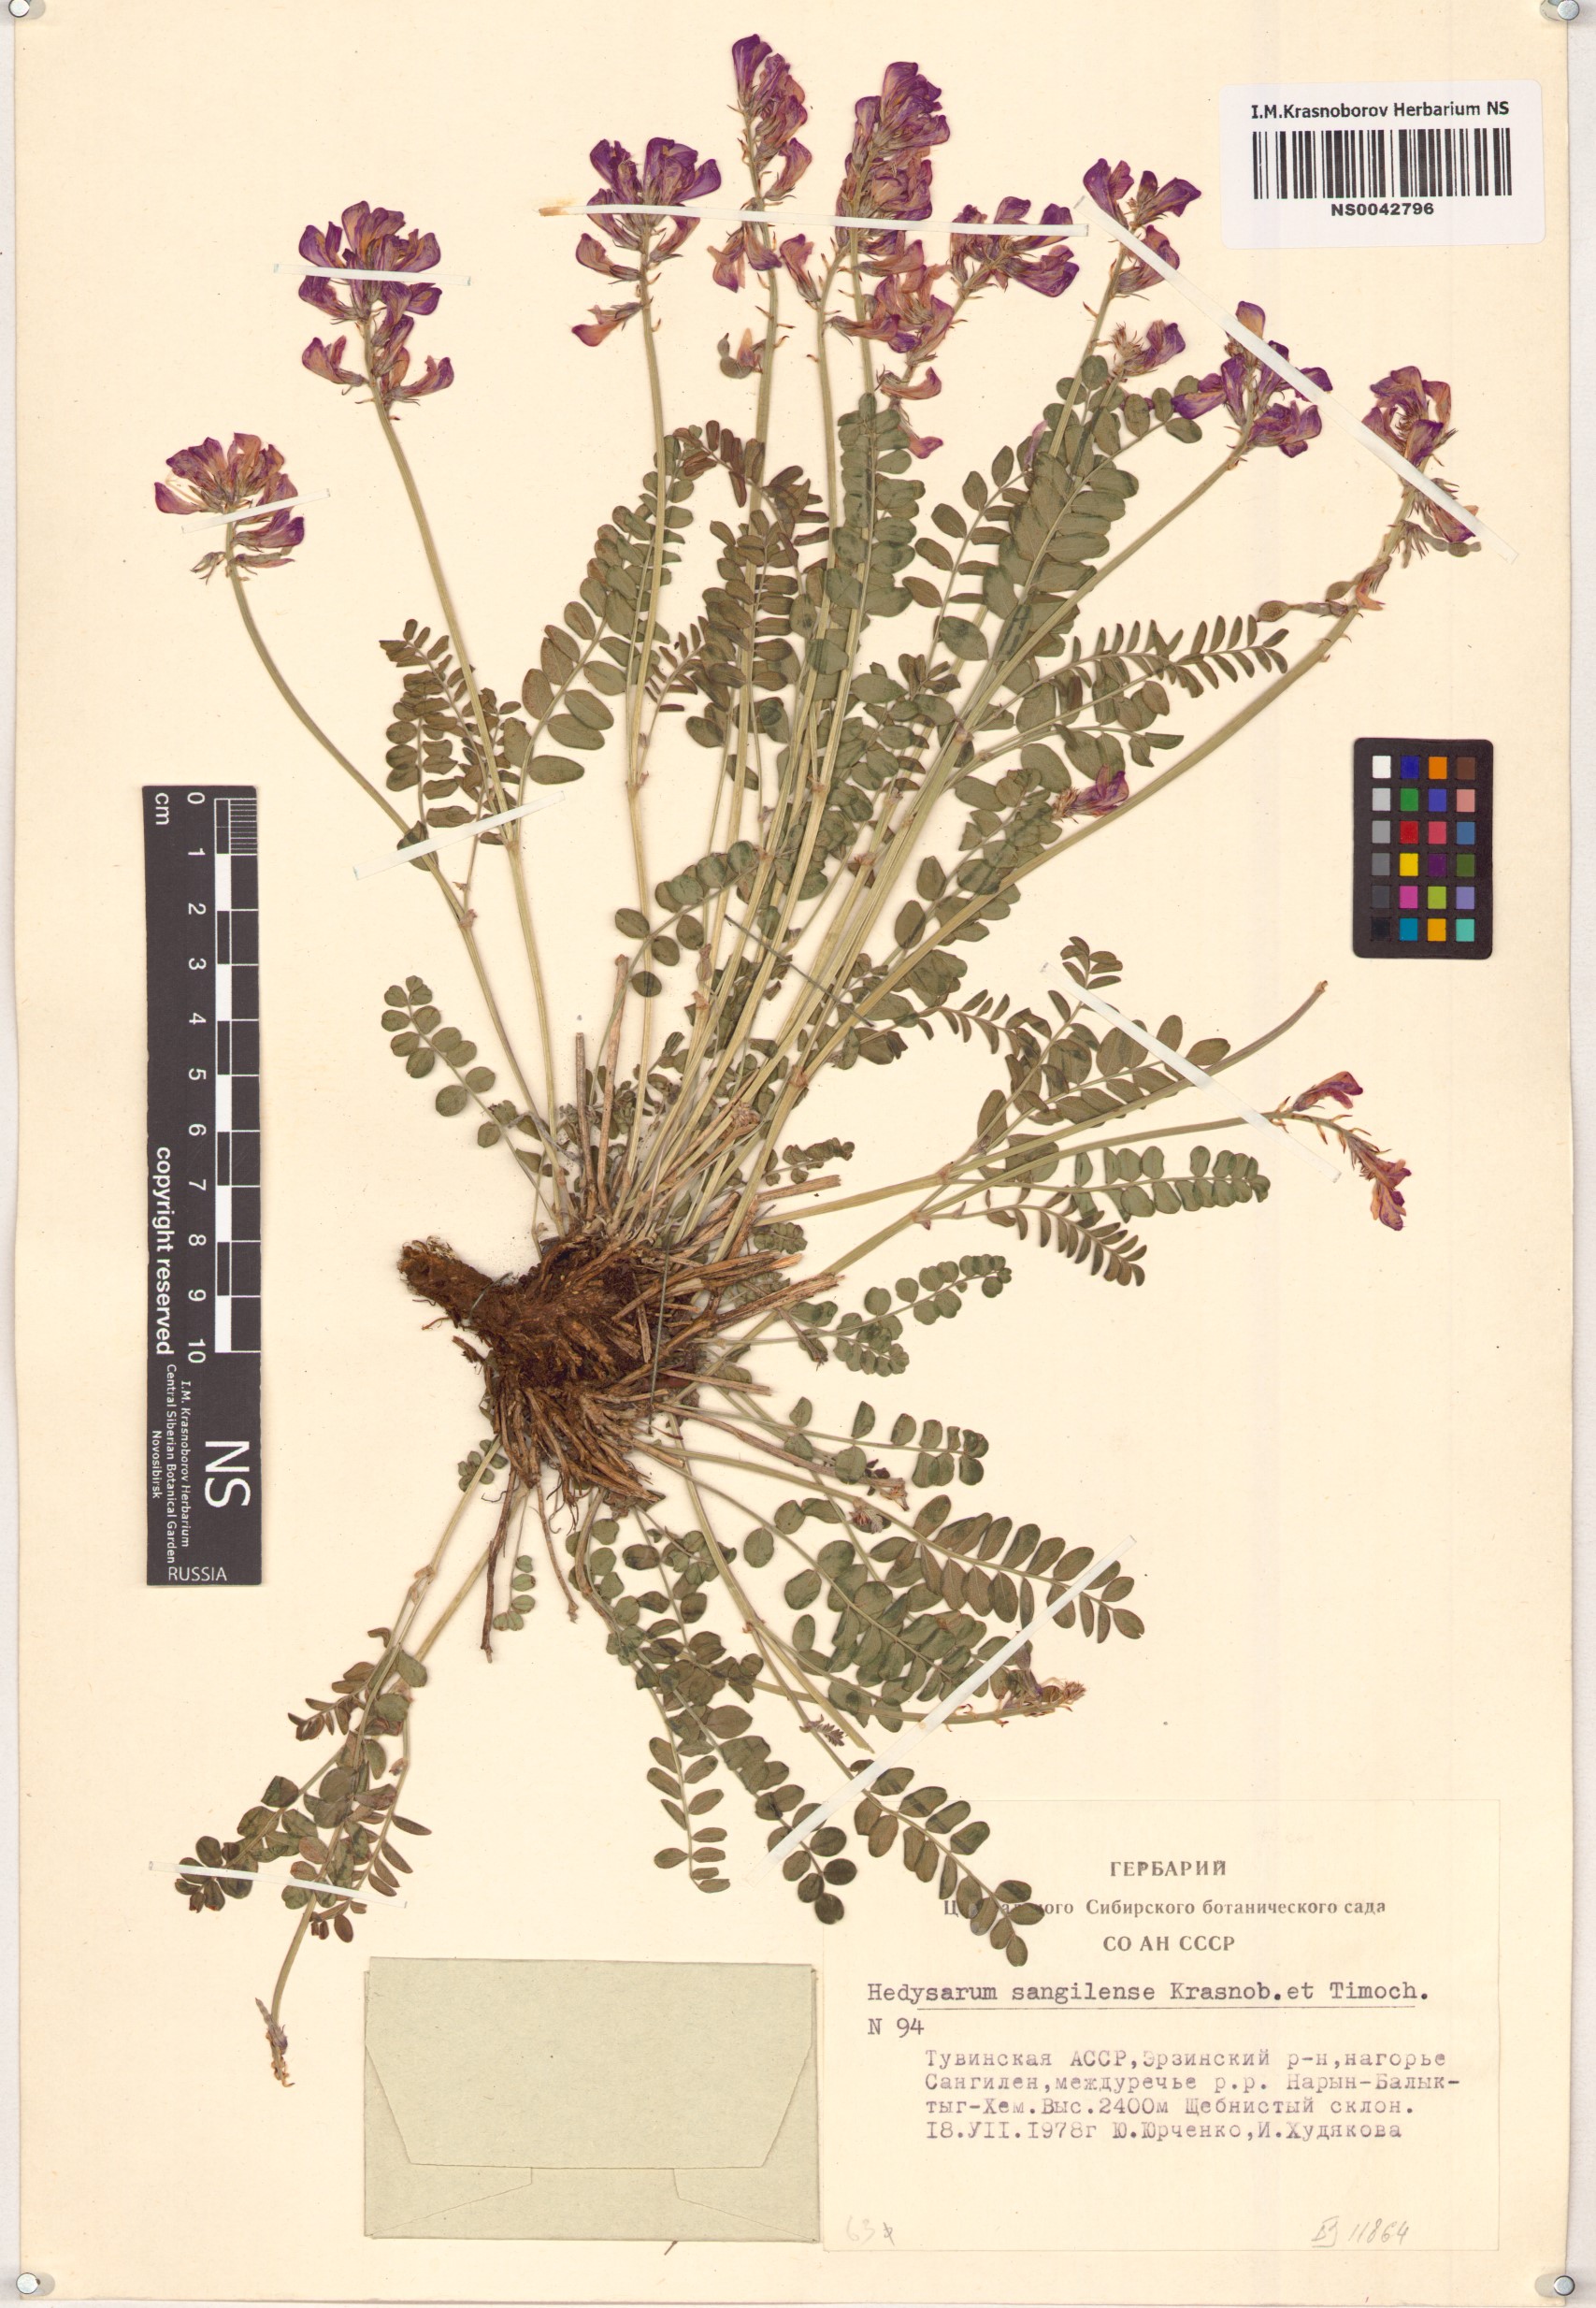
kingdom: Plantae
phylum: Tracheophyta
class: Magnoliopsida
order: Fabales
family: Fabaceae
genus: Hedysarum
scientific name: Hedysarum sangilense
